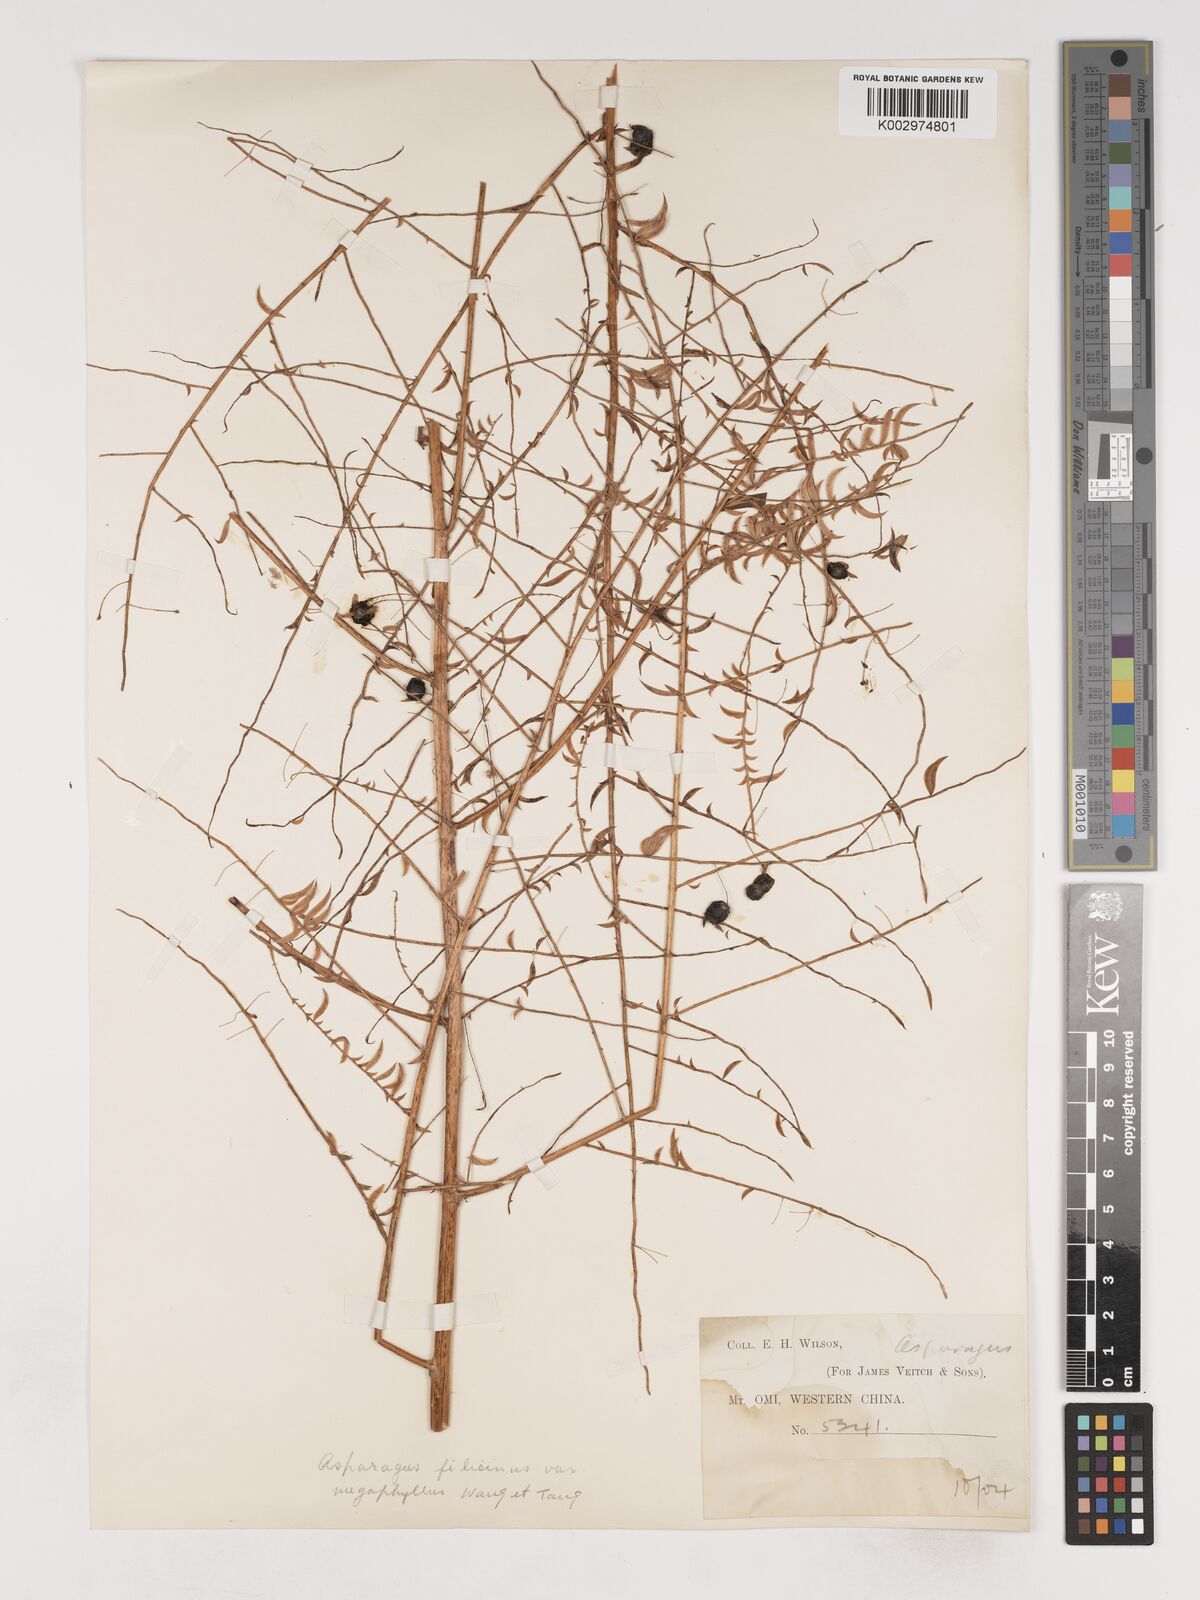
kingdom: Plantae
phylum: Tracheophyta
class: Liliopsida
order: Asparagales
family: Asparagaceae
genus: Asparagus
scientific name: Asparagus filicinus
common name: Fern asparagus
